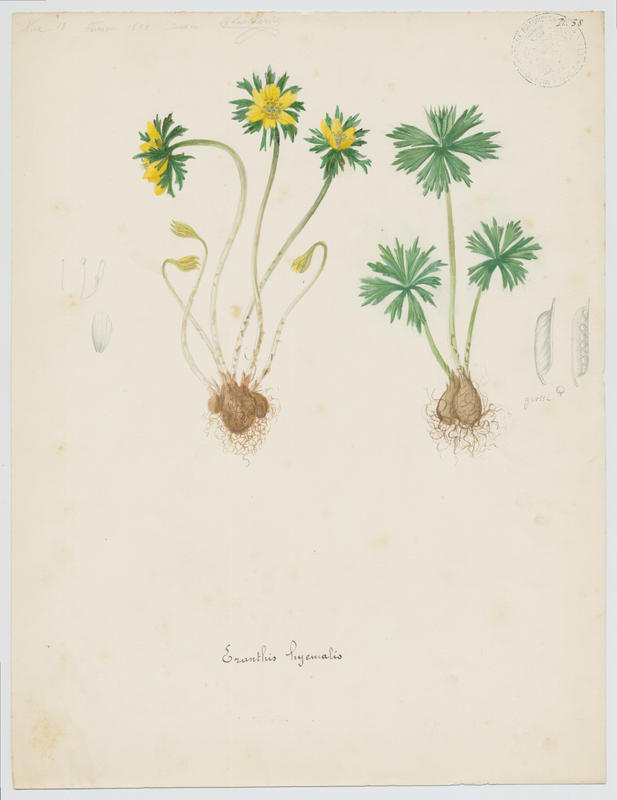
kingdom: Plantae
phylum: Tracheophyta
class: Magnoliopsida
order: Ranunculales
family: Ranunculaceae
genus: Eranthis
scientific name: Eranthis hyemalis
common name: Winter aconite
